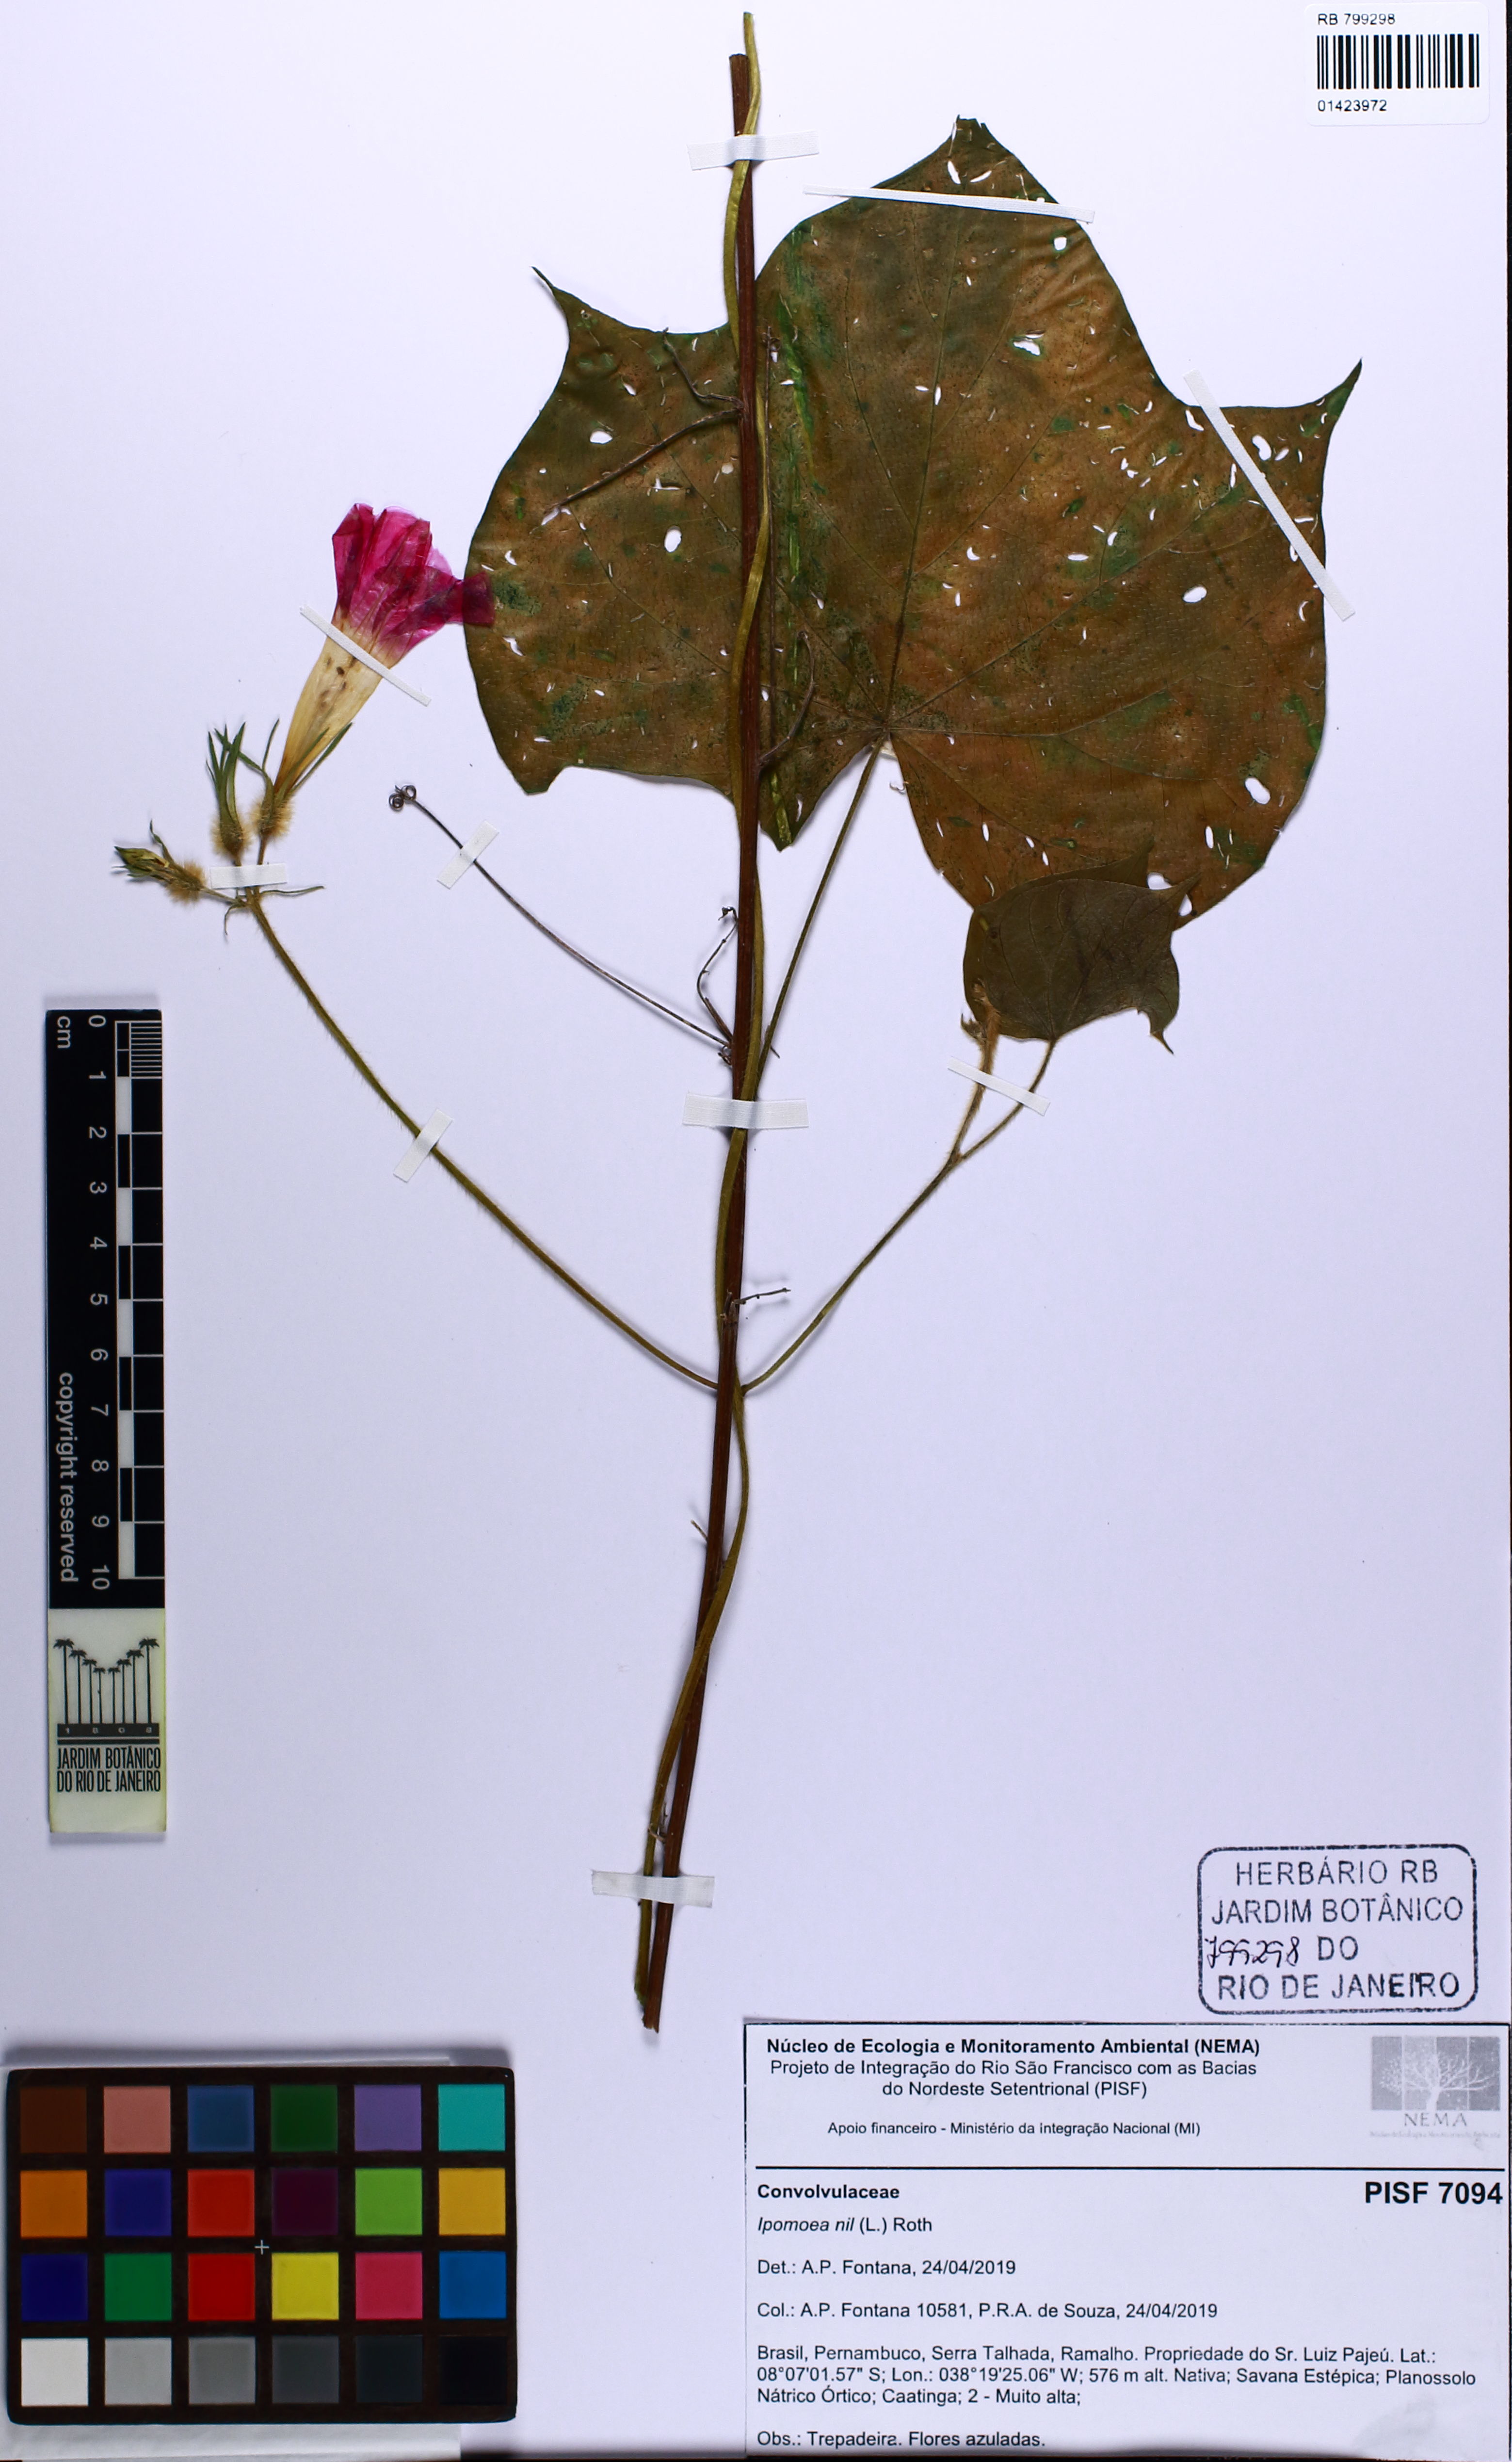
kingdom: Plantae
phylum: Tracheophyta
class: Magnoliopsida
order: Solanales
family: Convolvulaceae
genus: Ipomoea
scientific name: Ipomoea nil
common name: Japanese morning-glory
